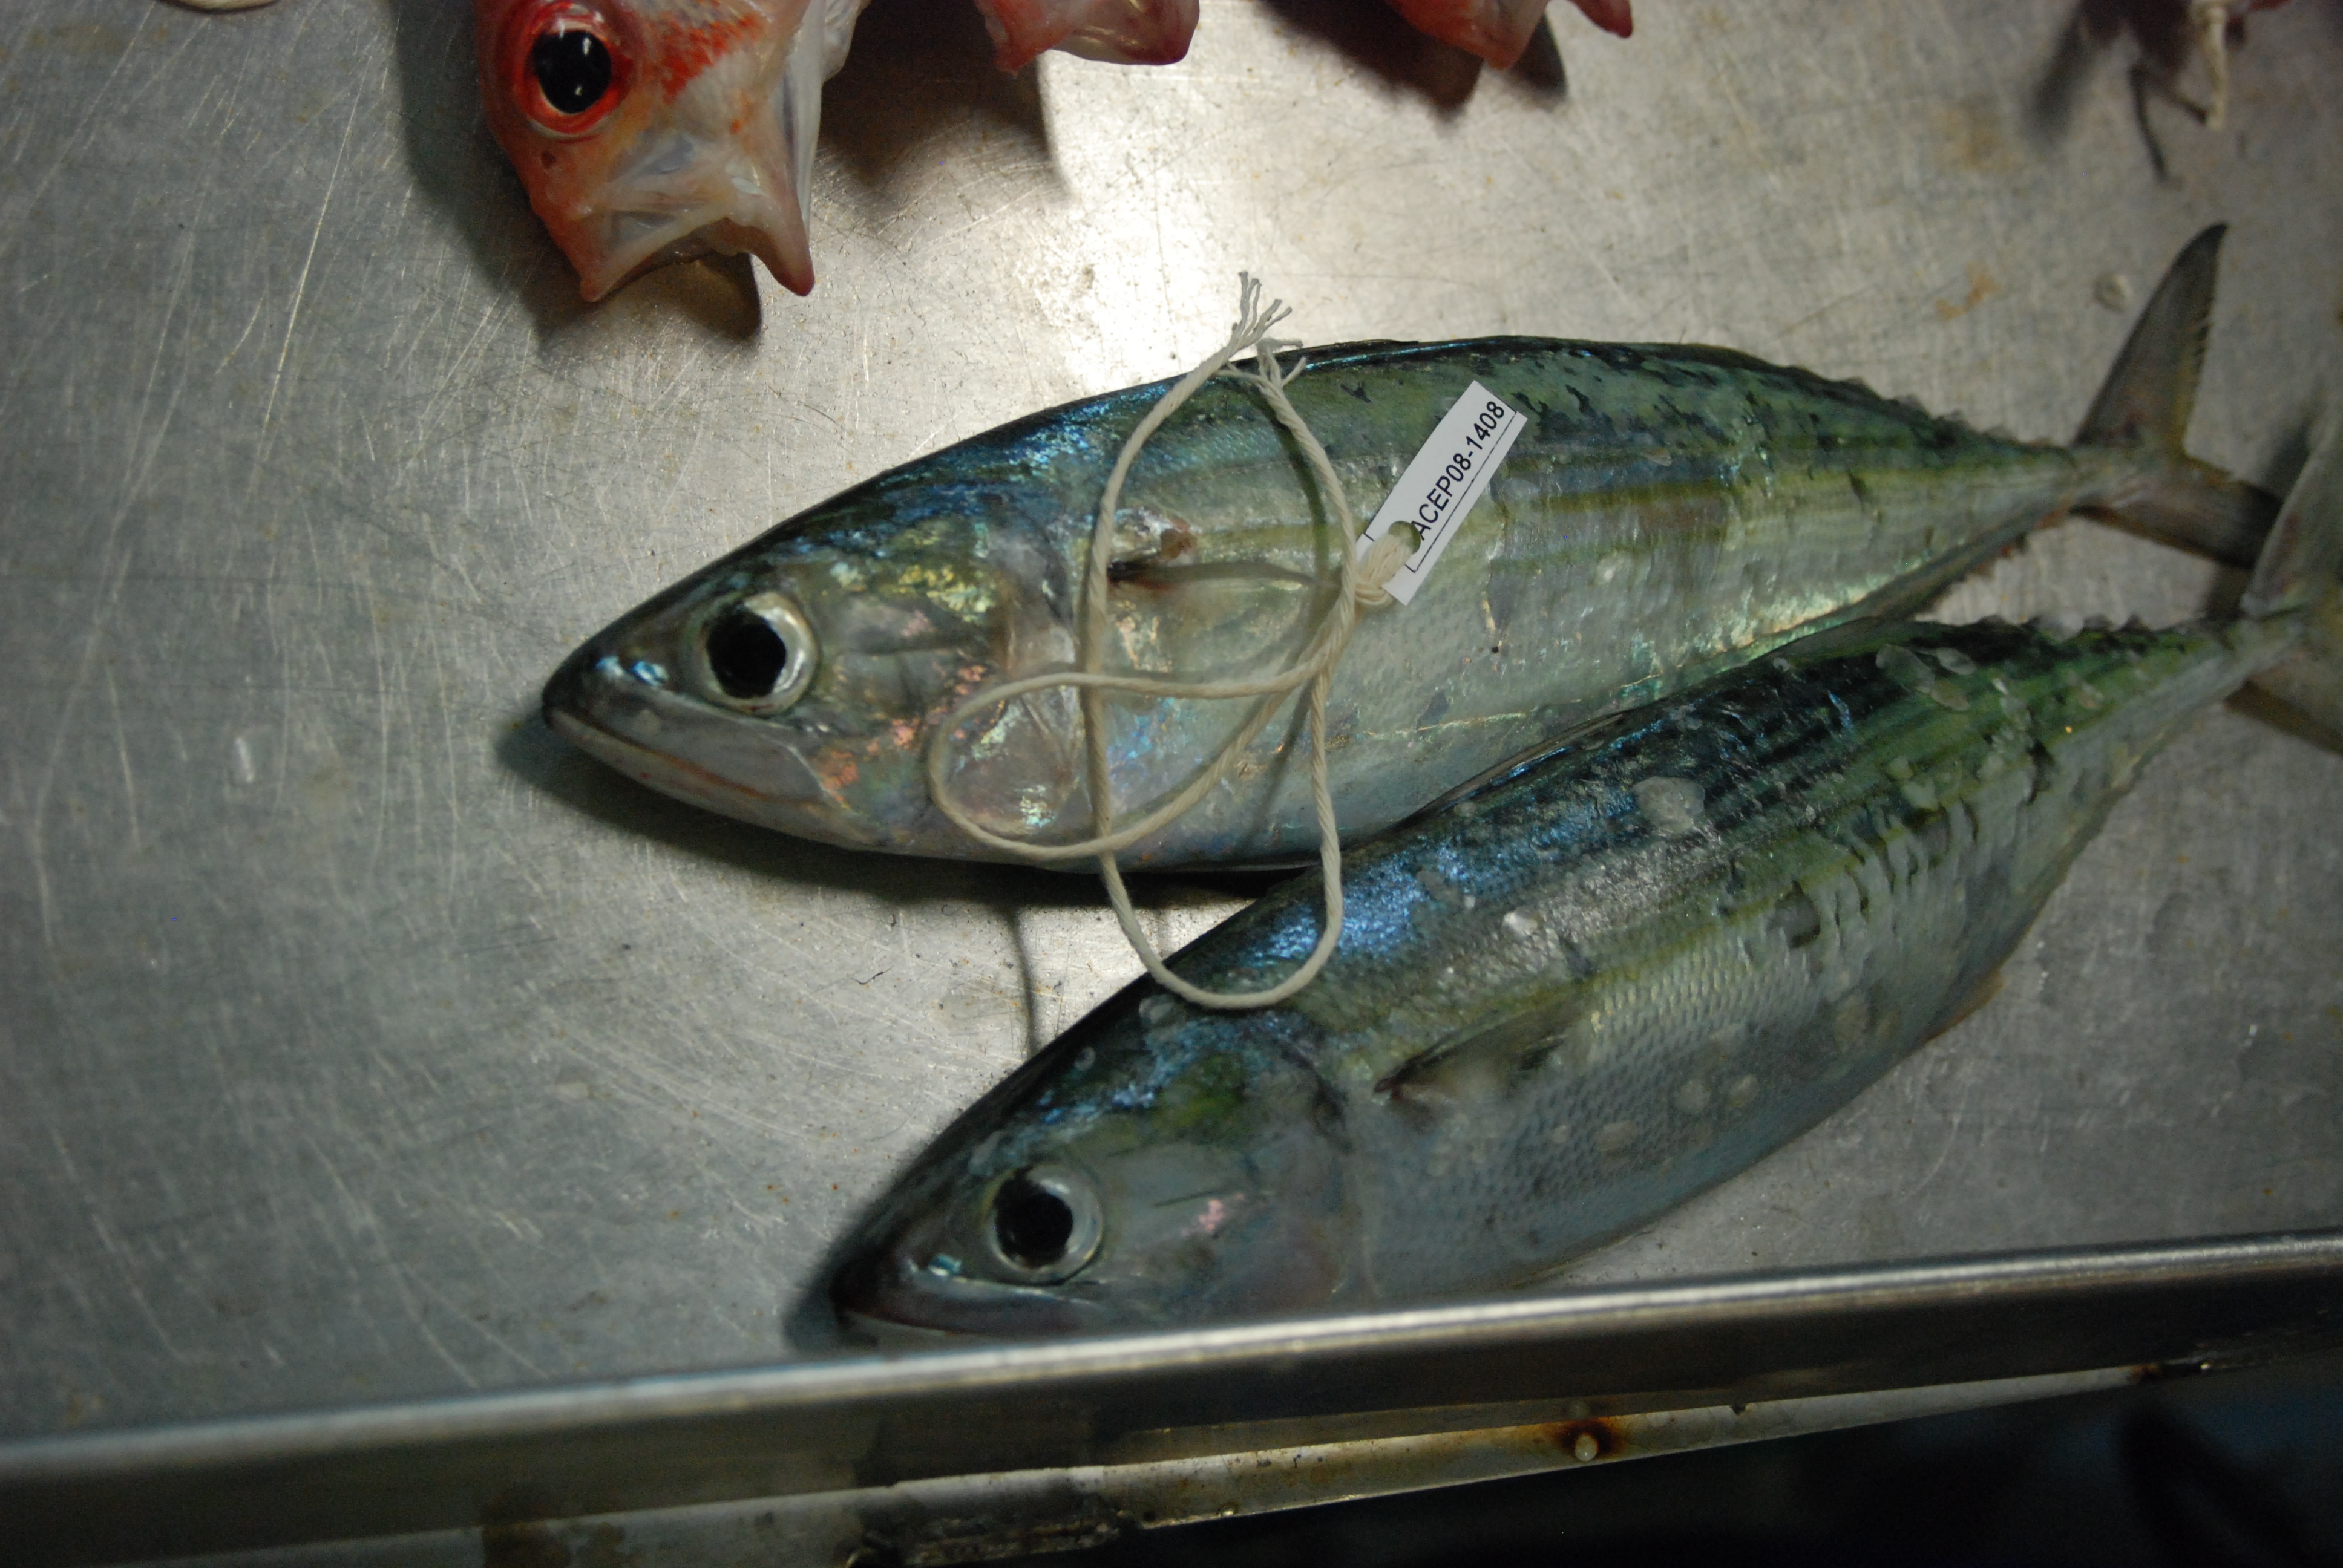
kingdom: Animalia
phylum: Chordata
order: Perciformes
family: Scombridae
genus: Sarda
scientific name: Sarda orientalis
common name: Striped bonito
